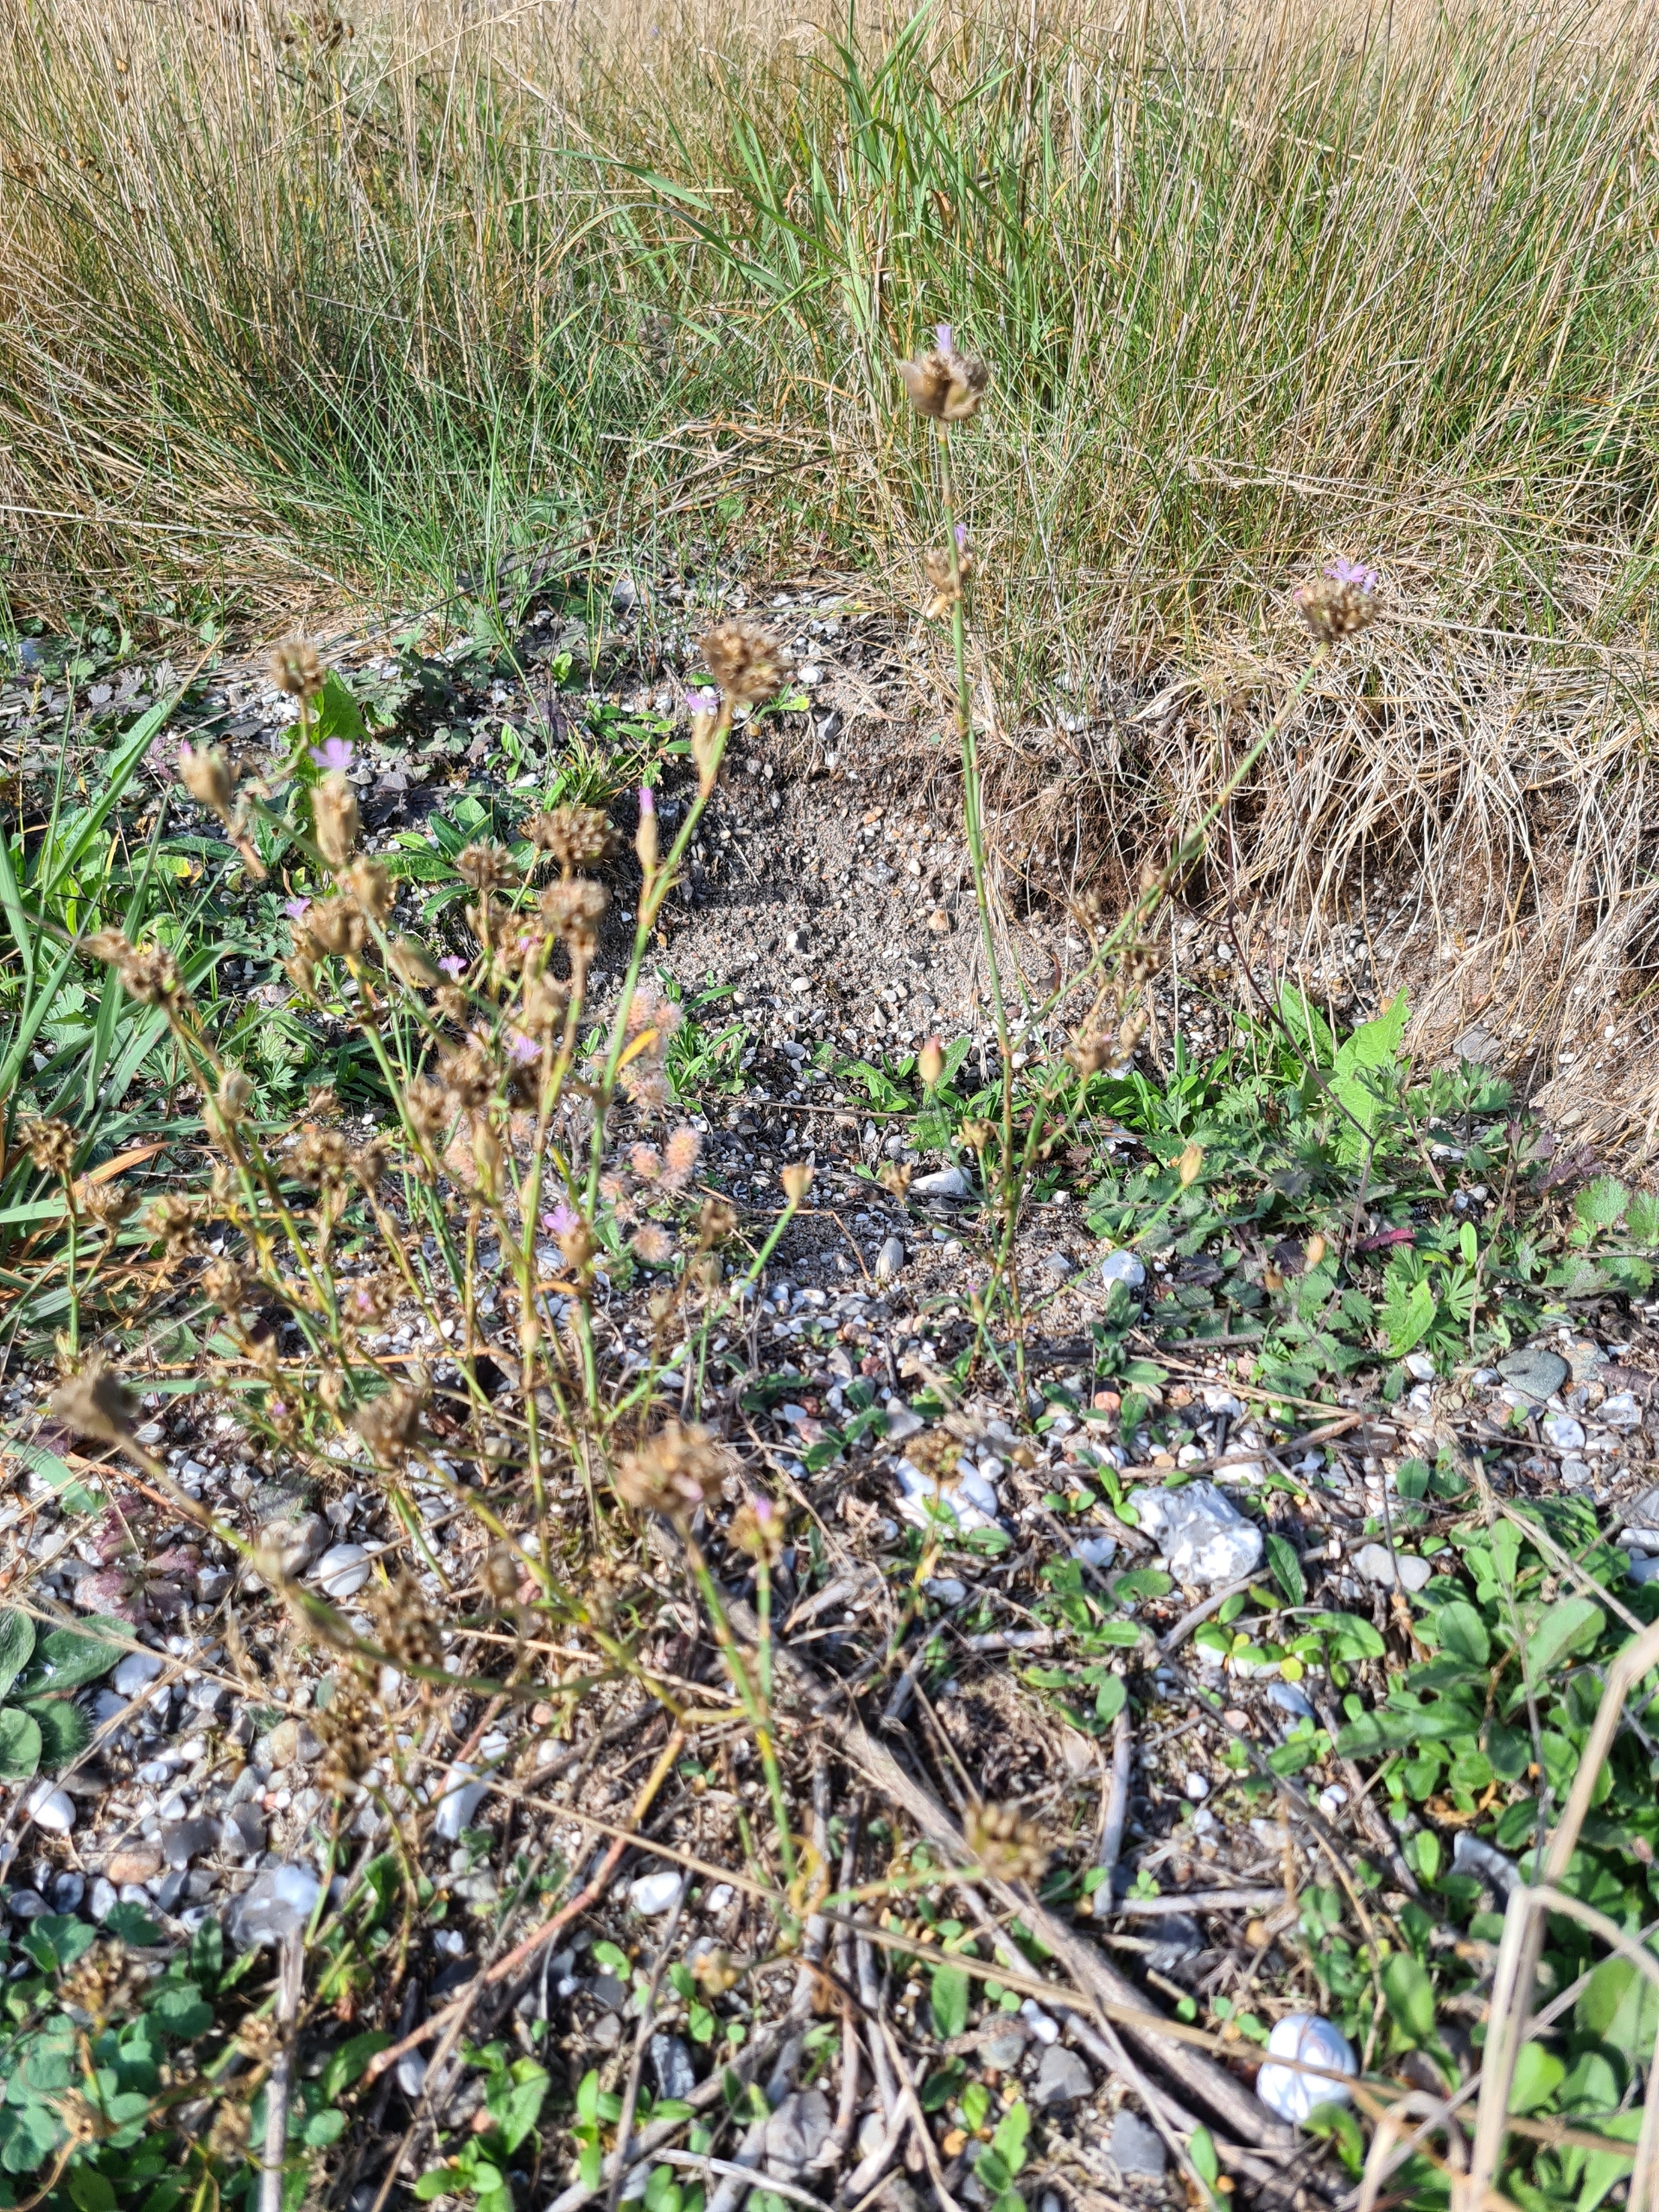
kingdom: Plantae
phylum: Tracheophyta
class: Magnoliopsida
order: Caryophyllales
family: Caryophyllaceae
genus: Petrorhagia
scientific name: Petrorhagia prolifera
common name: Knopnellike
